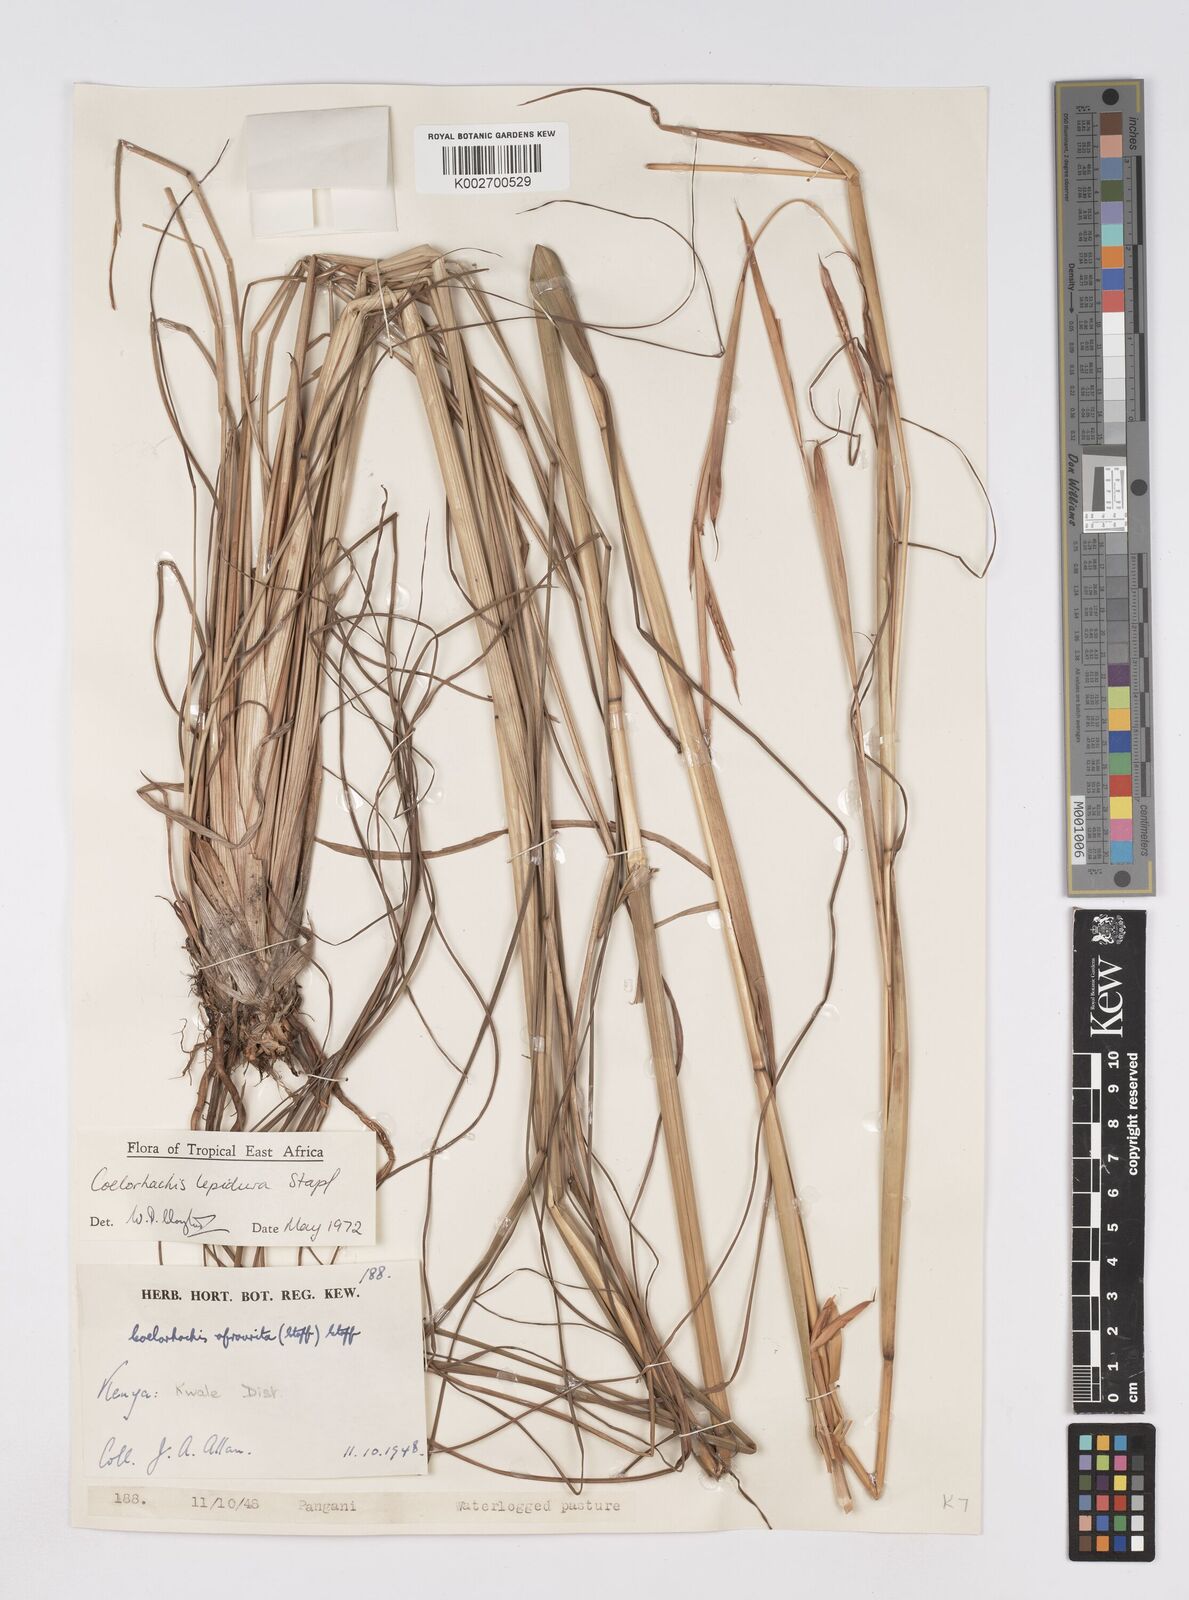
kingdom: Plantae
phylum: Tracheophyta
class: Liliopsida
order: Poales
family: Poaceae
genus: Rottboellia
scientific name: Rottboellia lepidura
